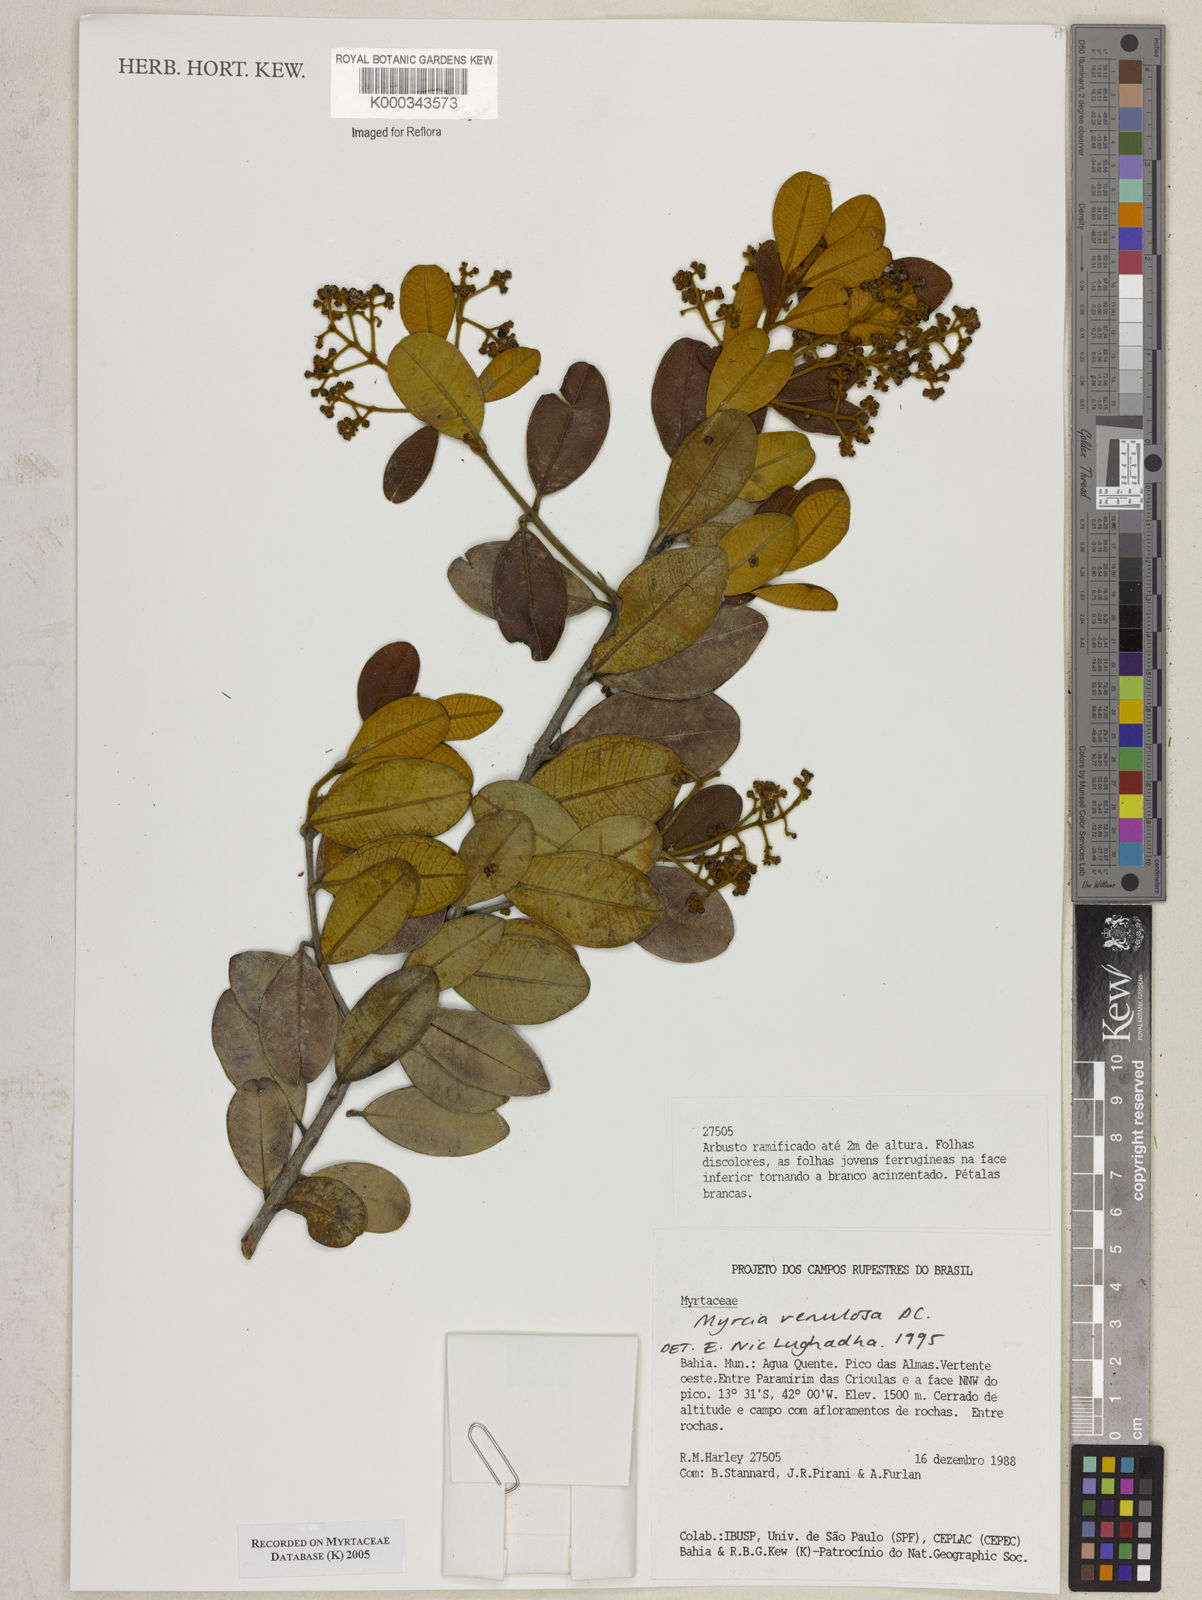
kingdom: Plantae
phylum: Tracheophyta
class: Magnoliopsida
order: Myrtales
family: Myrtaceae
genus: Myrcia
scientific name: Myrcia venulosa
